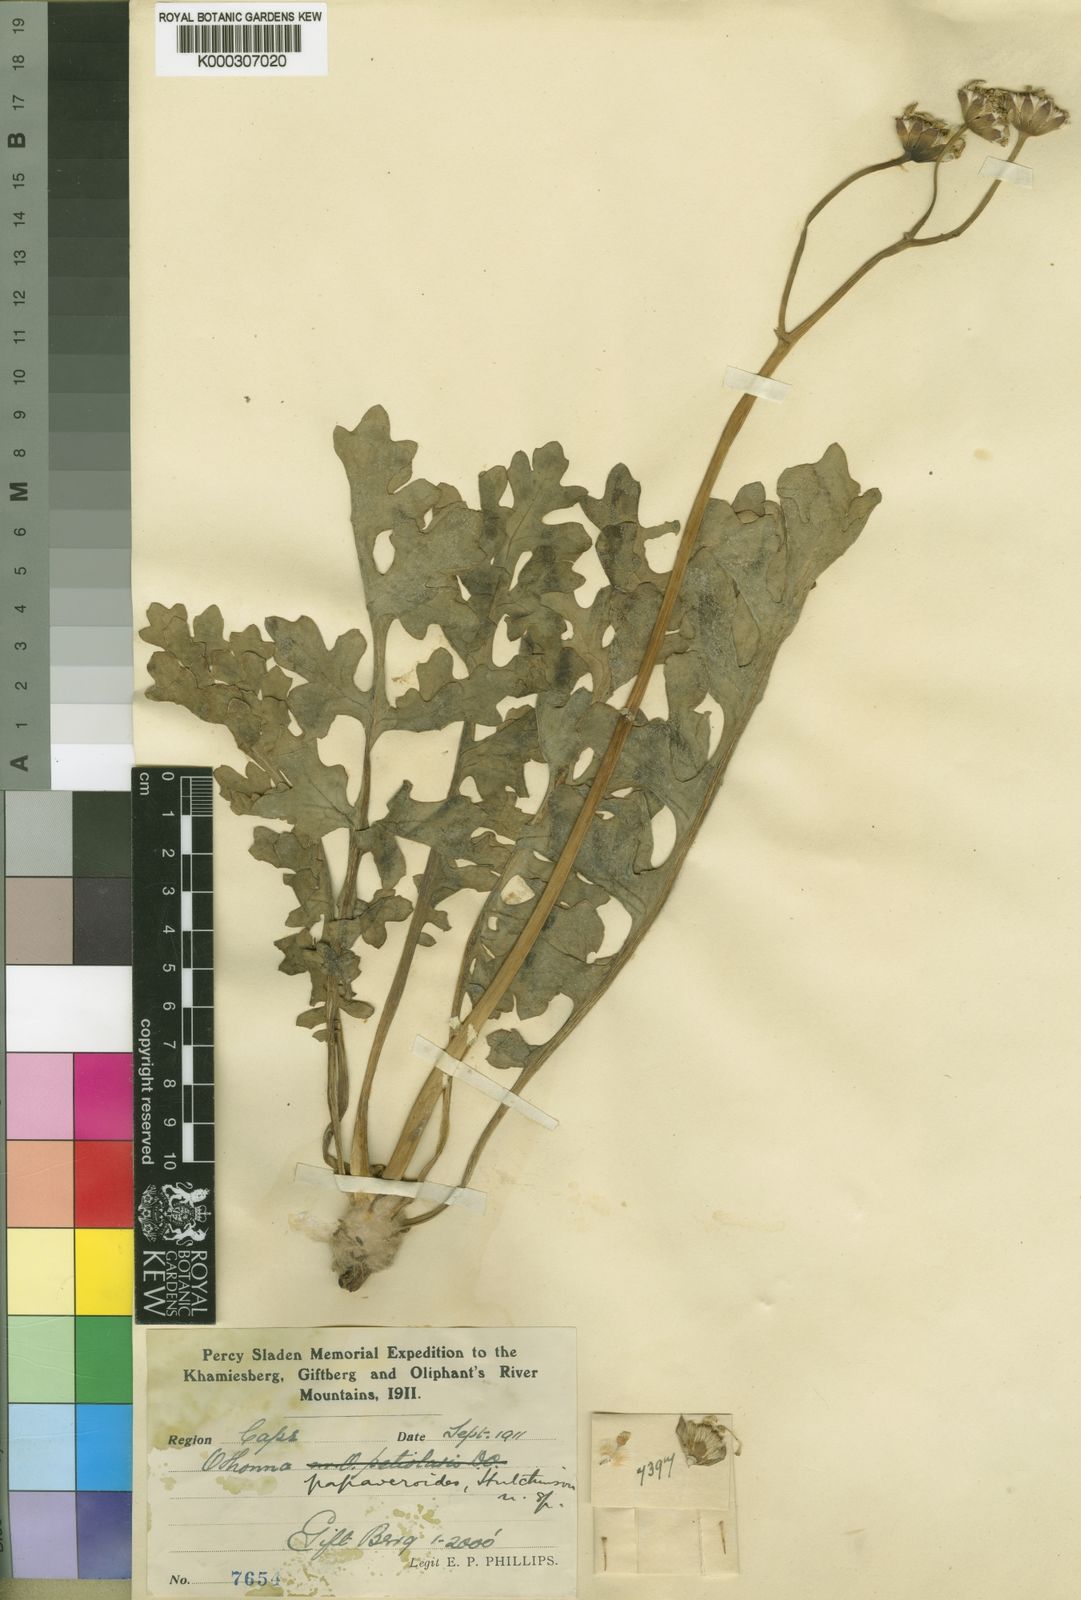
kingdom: Plantae
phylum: Tracheophyta
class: Magnoliopsida
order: Asterales
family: Asteraceae
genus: Othonna
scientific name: Othonna rotundiloba
